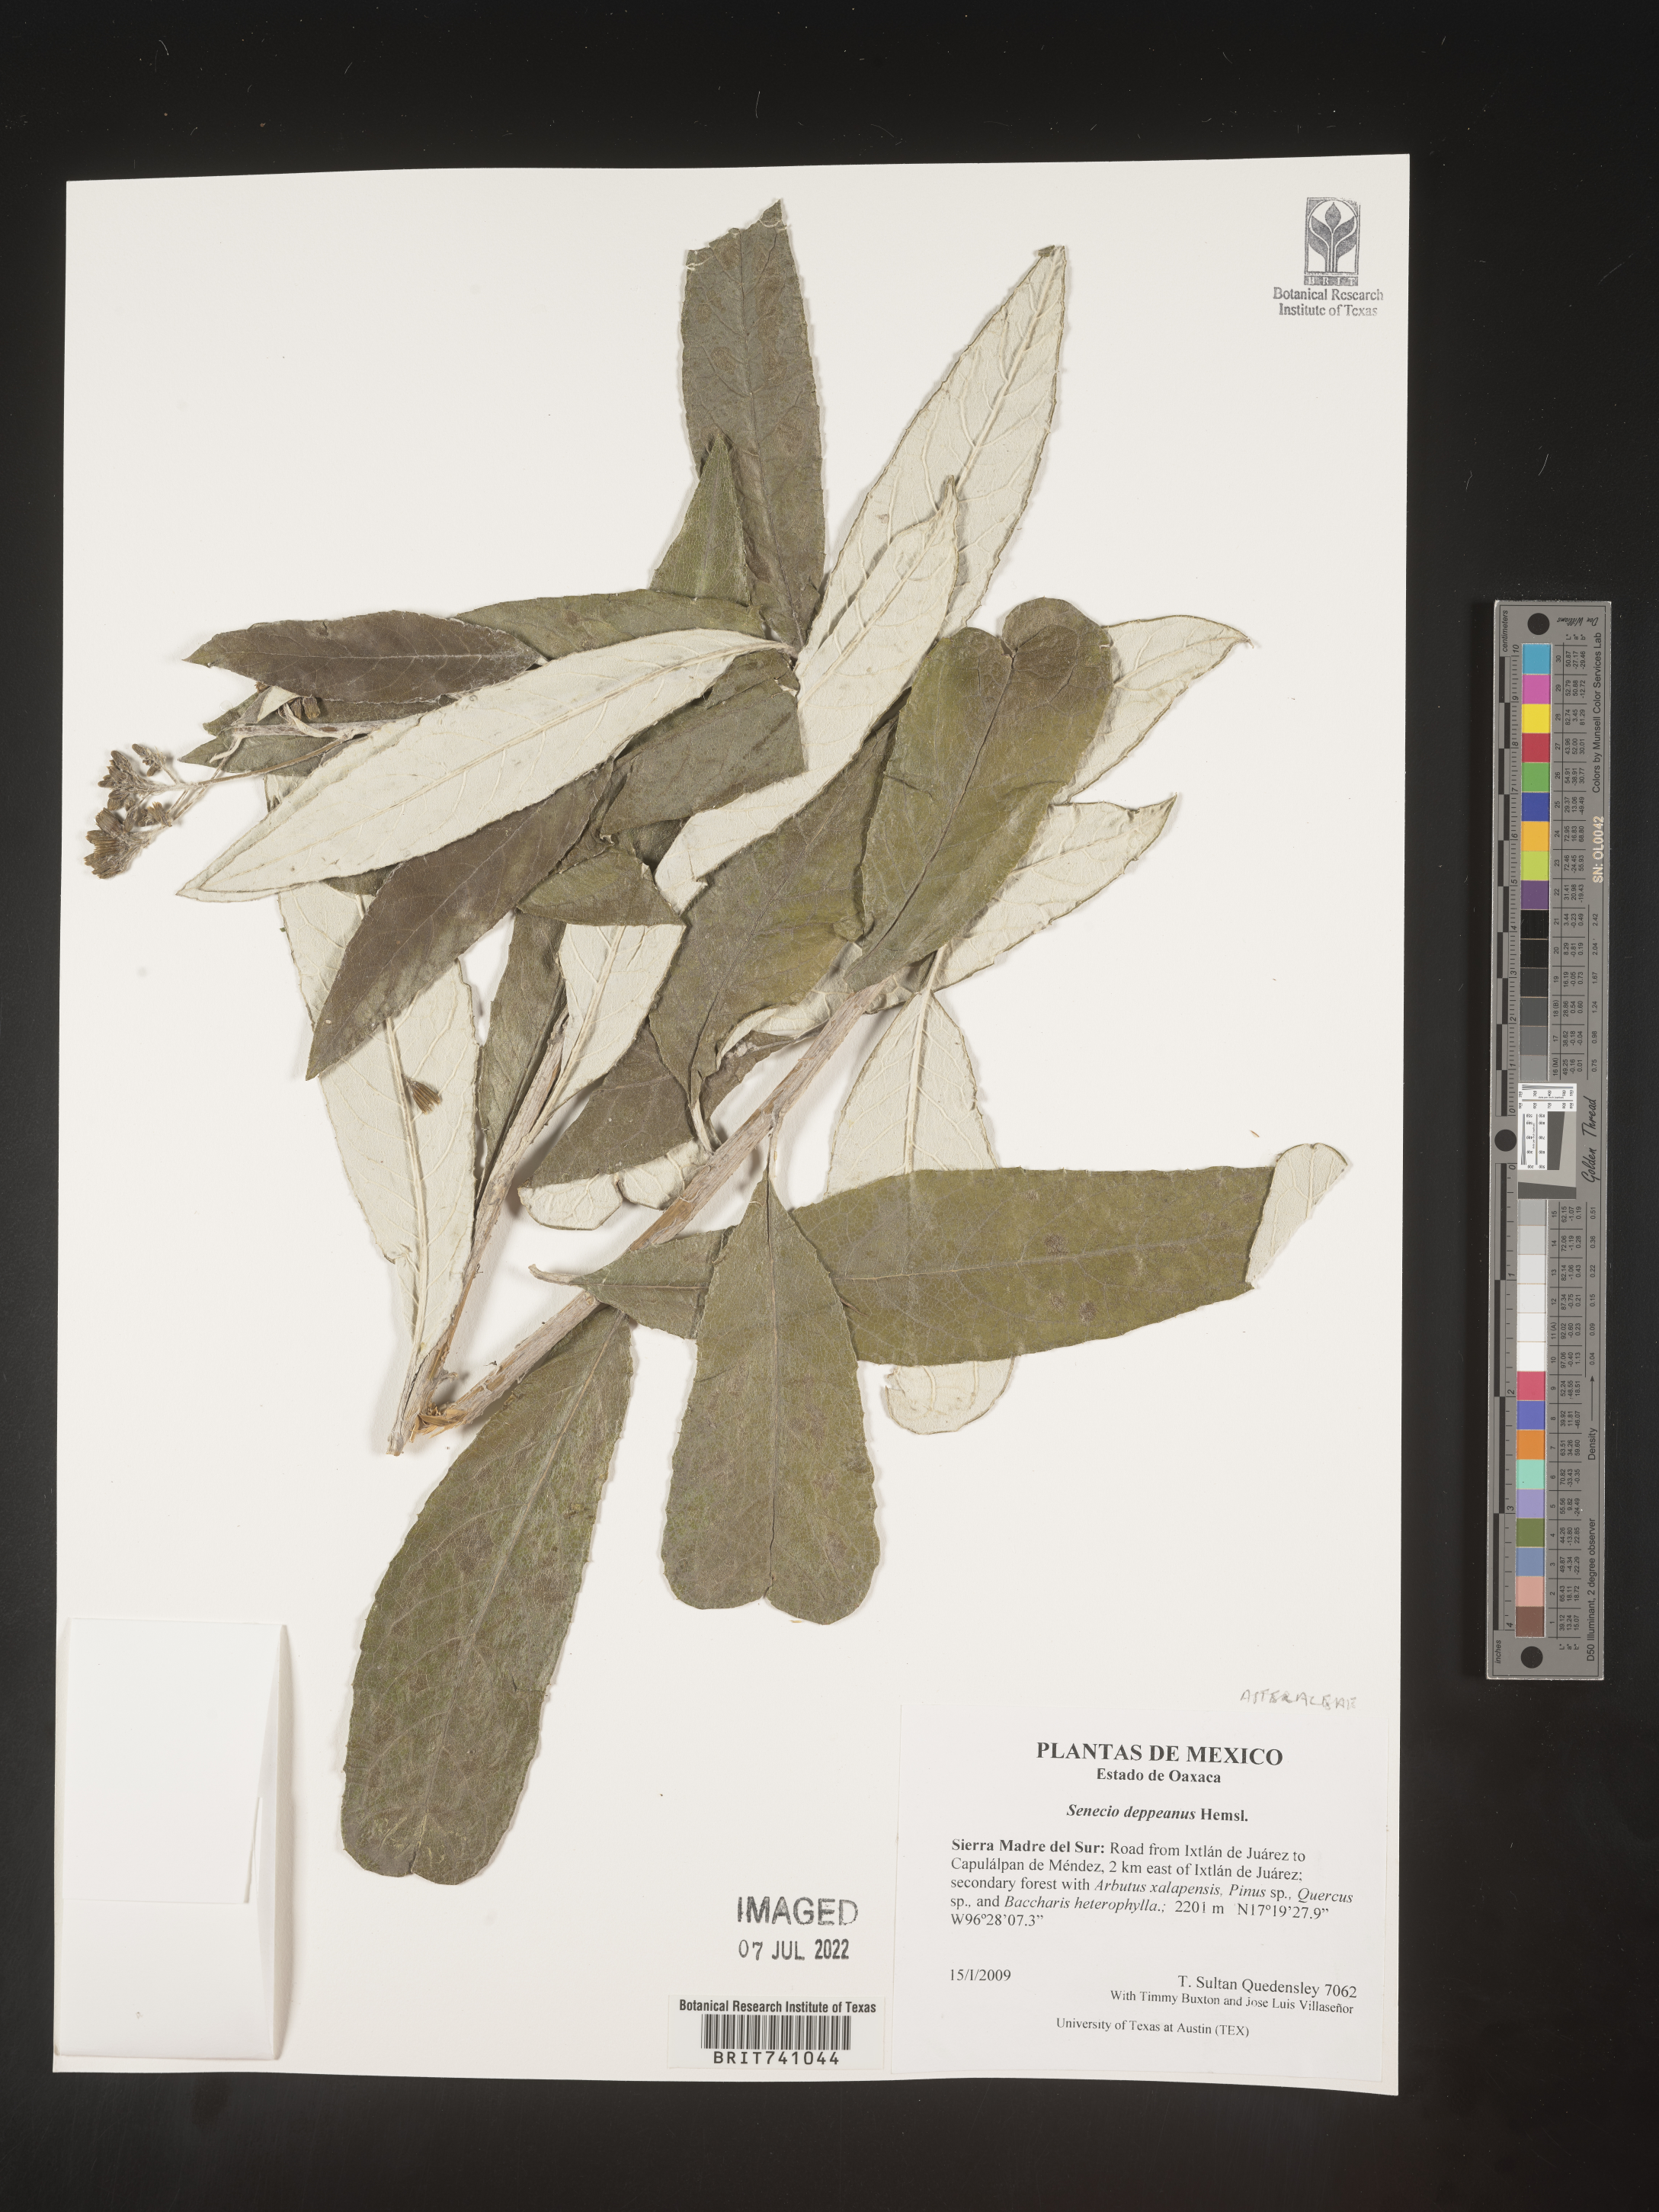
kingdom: Plantae
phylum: Tracheophyta
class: Magnoliopsida
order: Asterales
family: Asteraceae
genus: Senecio
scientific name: Senecio
